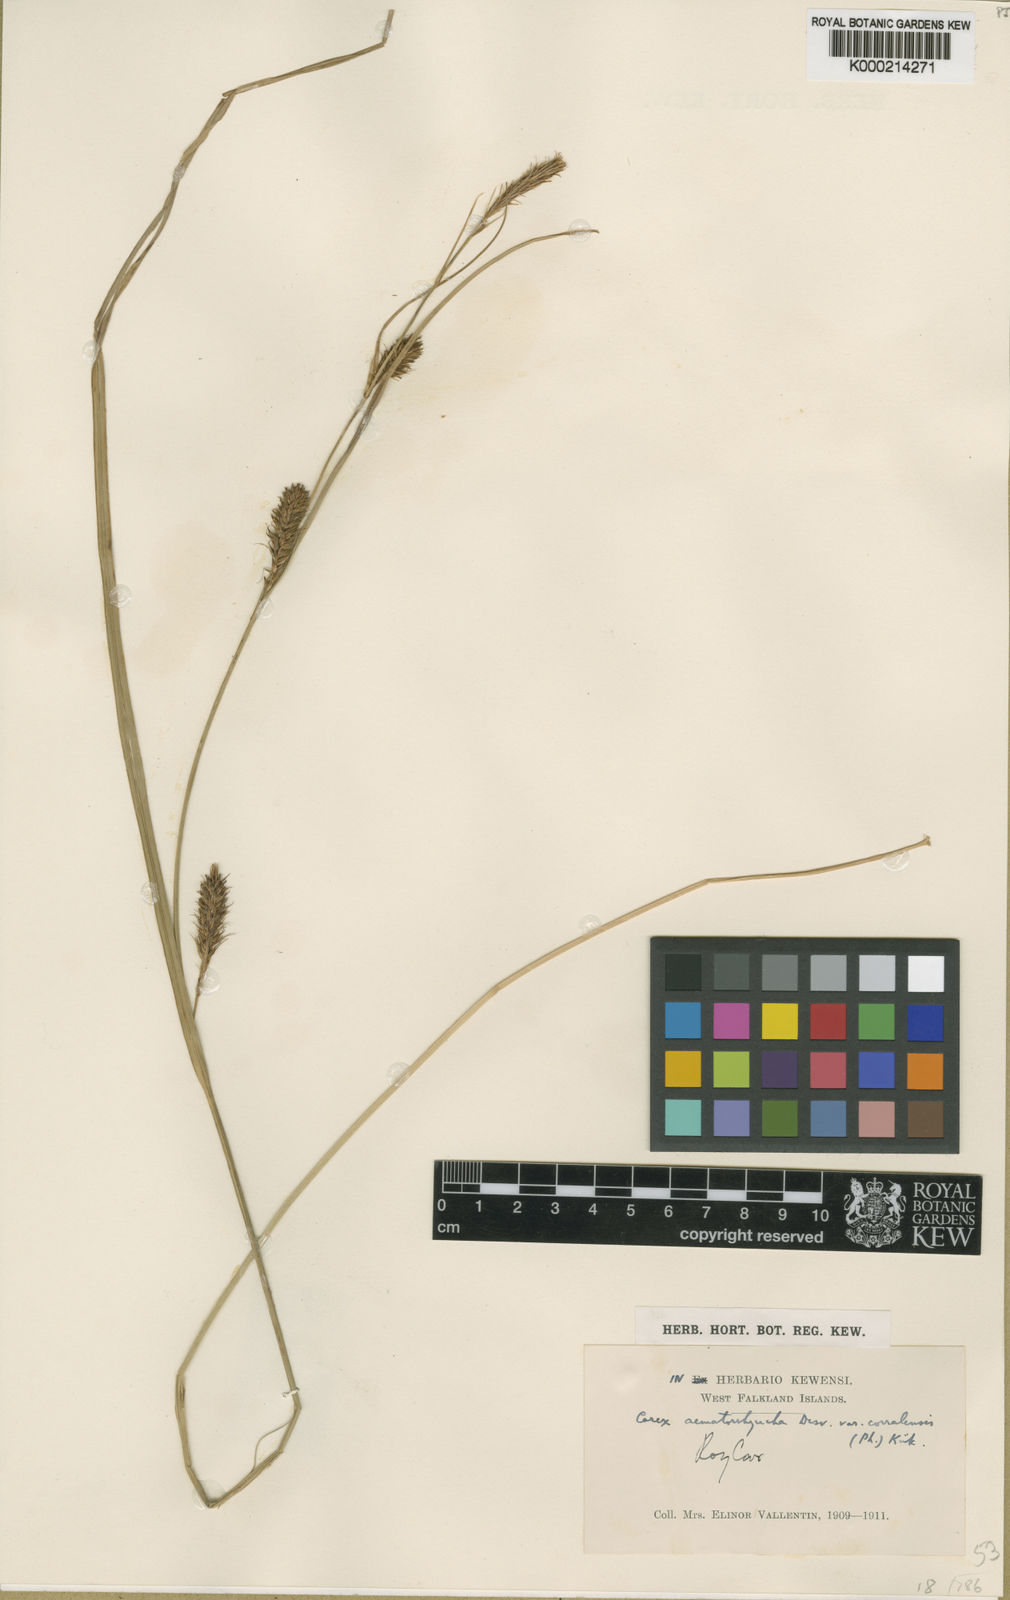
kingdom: Plantae
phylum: Tracheophyta
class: Liliopsida
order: Poales
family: Cyperaceae
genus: Carex
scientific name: Carex aematorhyncha
